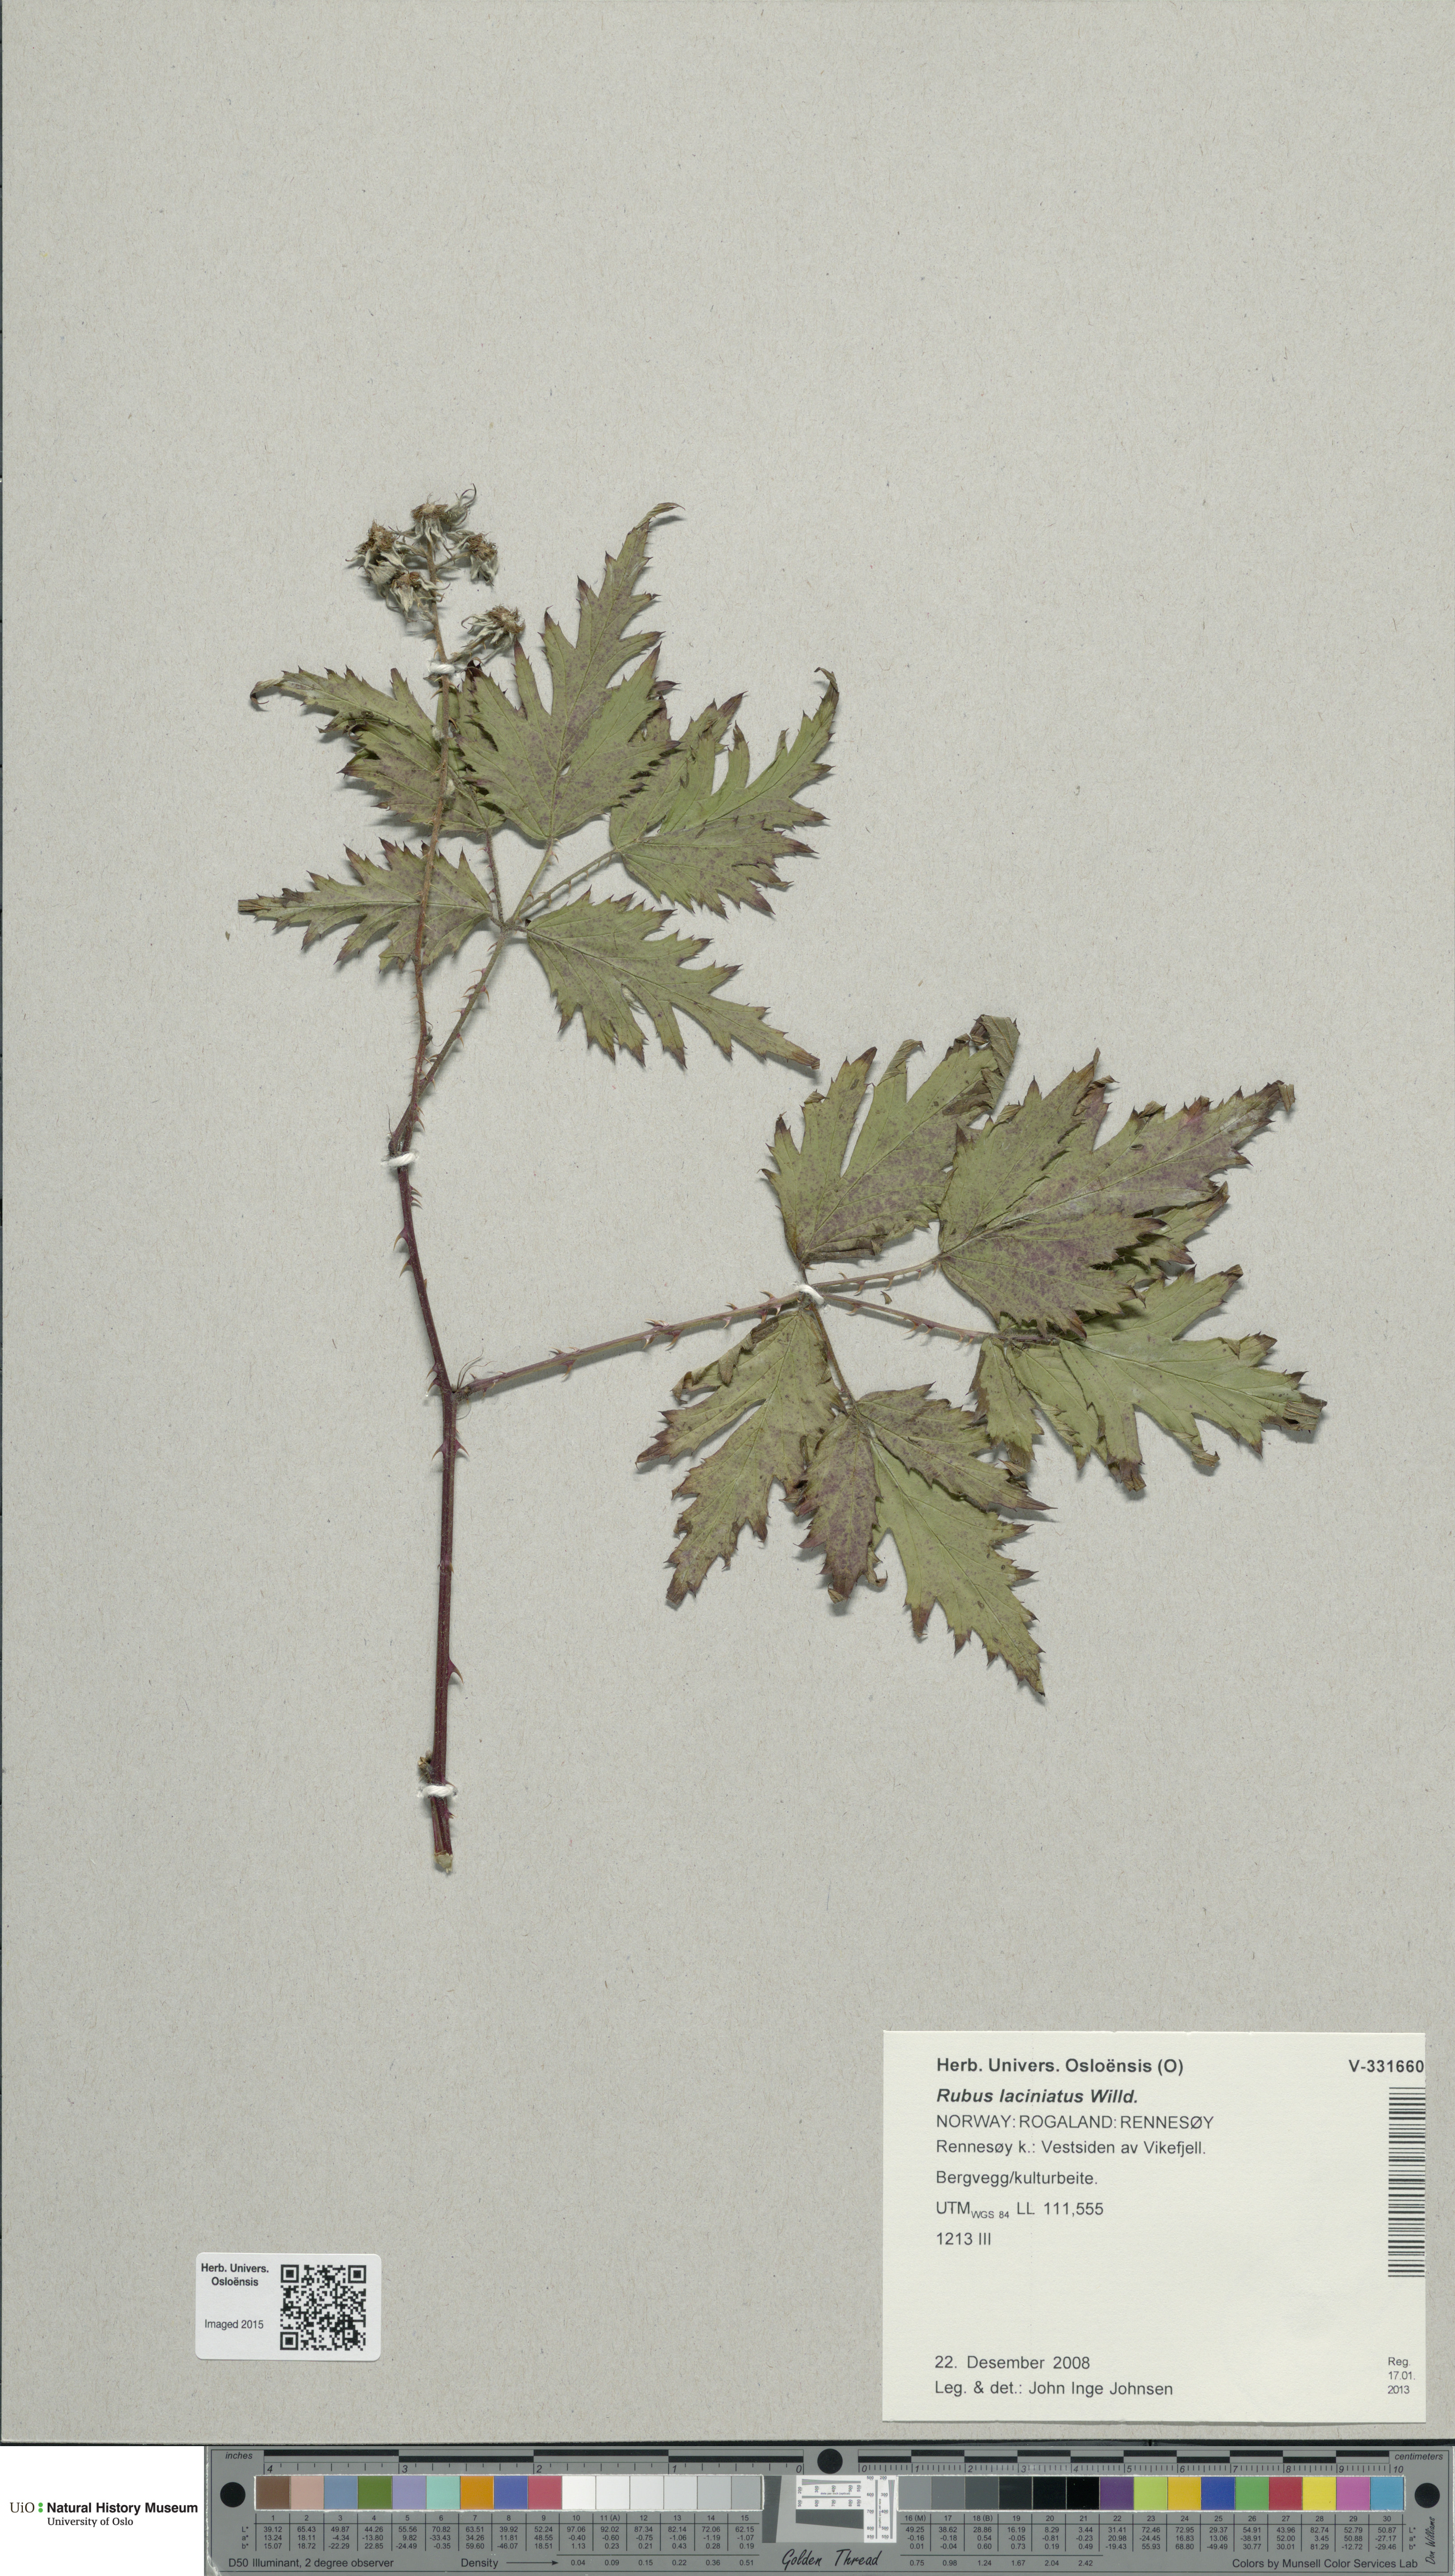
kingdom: Plantae
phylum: Tracheophyta
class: Magnoliopsida
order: Rosales
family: Rosaceae
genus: Rubus
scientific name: Rubus laciniatus
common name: Evergreen blackberry
